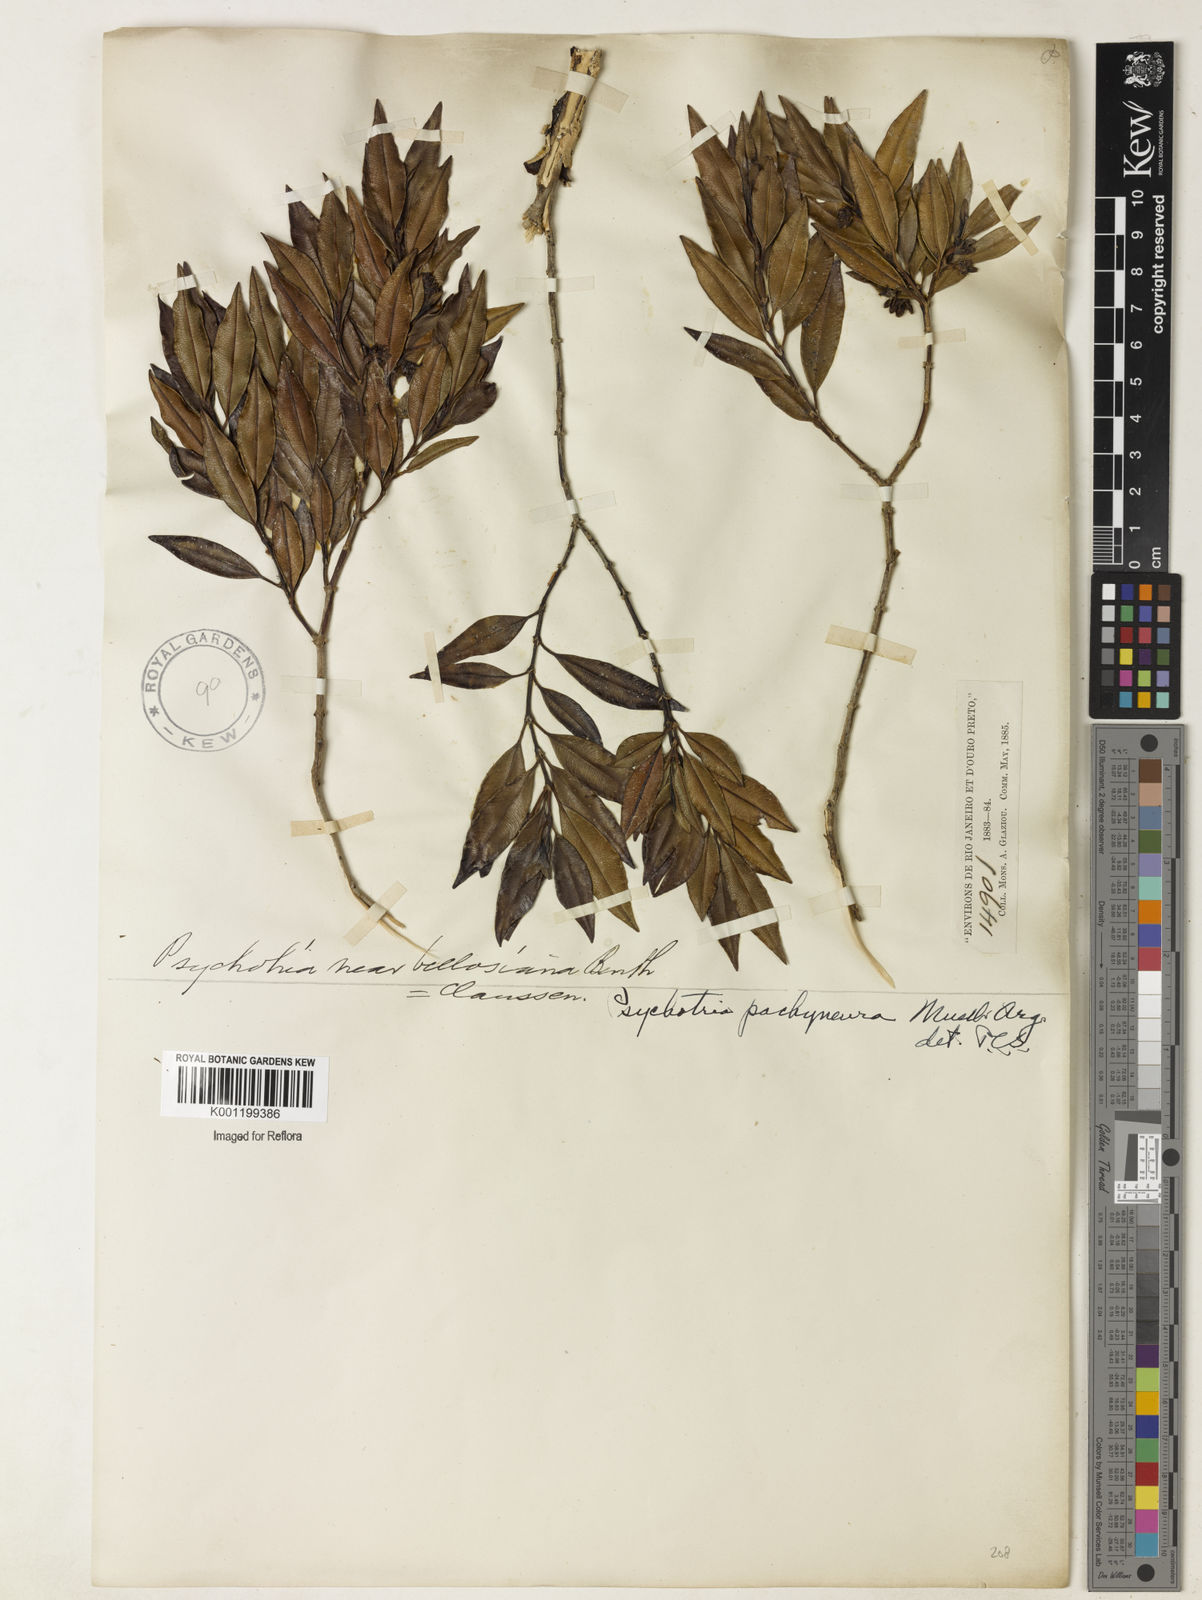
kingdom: Plantae
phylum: Tracheophyta
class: Magnoliopsida
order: Gentianales
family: Rubiaceae
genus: Psychotria
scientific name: Psychotria
